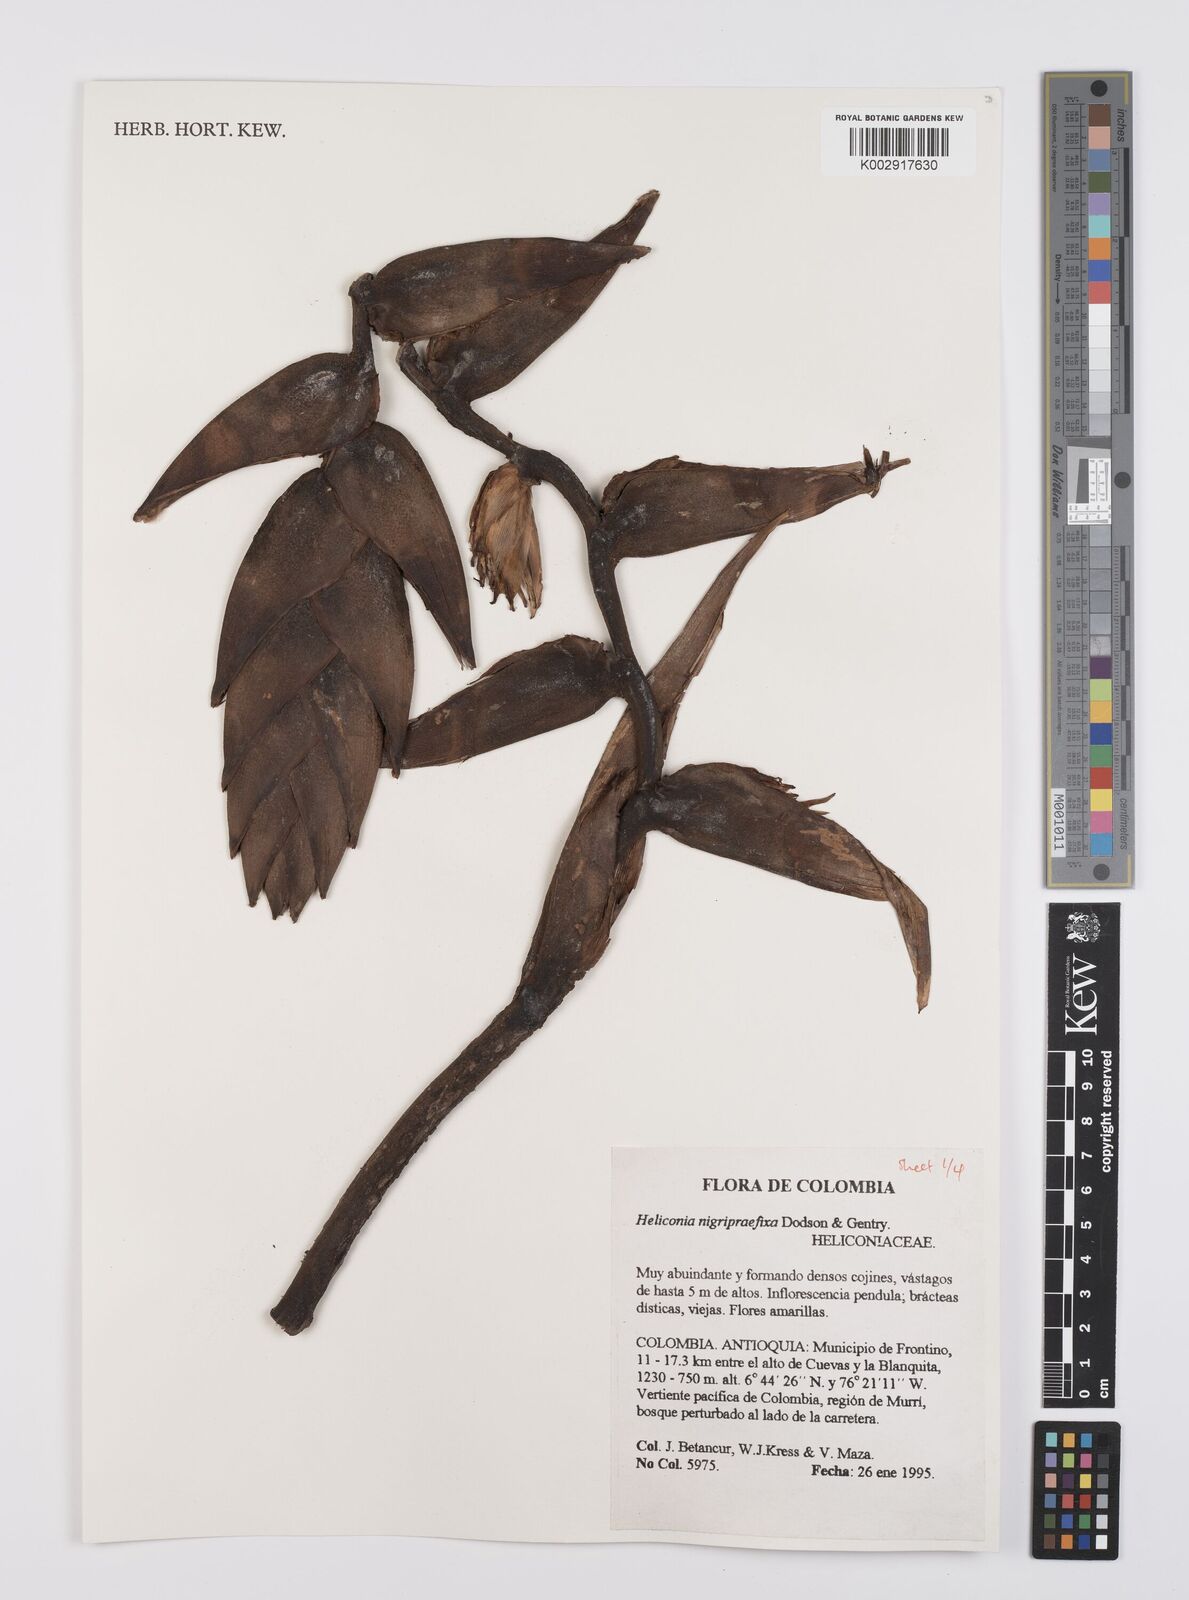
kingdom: Plantae
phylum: Tracheophyta
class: Liliopsida
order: Zingiberales
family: Heliconiaceae
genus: Heliconia
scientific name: Heliconia nigripraefixa
